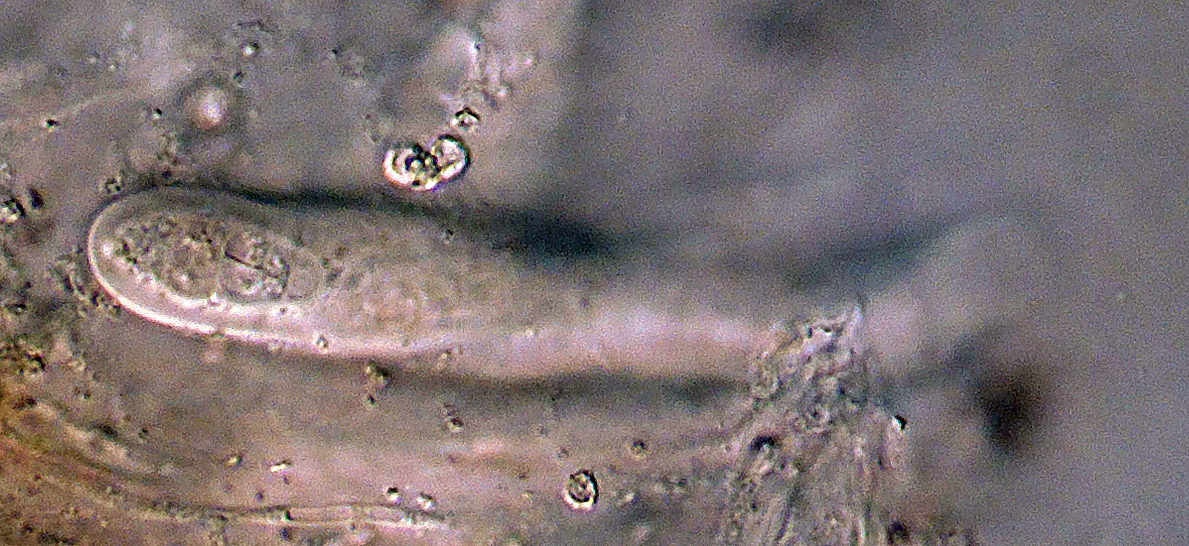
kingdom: Fungi
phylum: Ascomycota
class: Dothideomycetes
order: Hysteriales
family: Hysteriaceae
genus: Hysterobrevium
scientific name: Hysterobrevium smilacis
